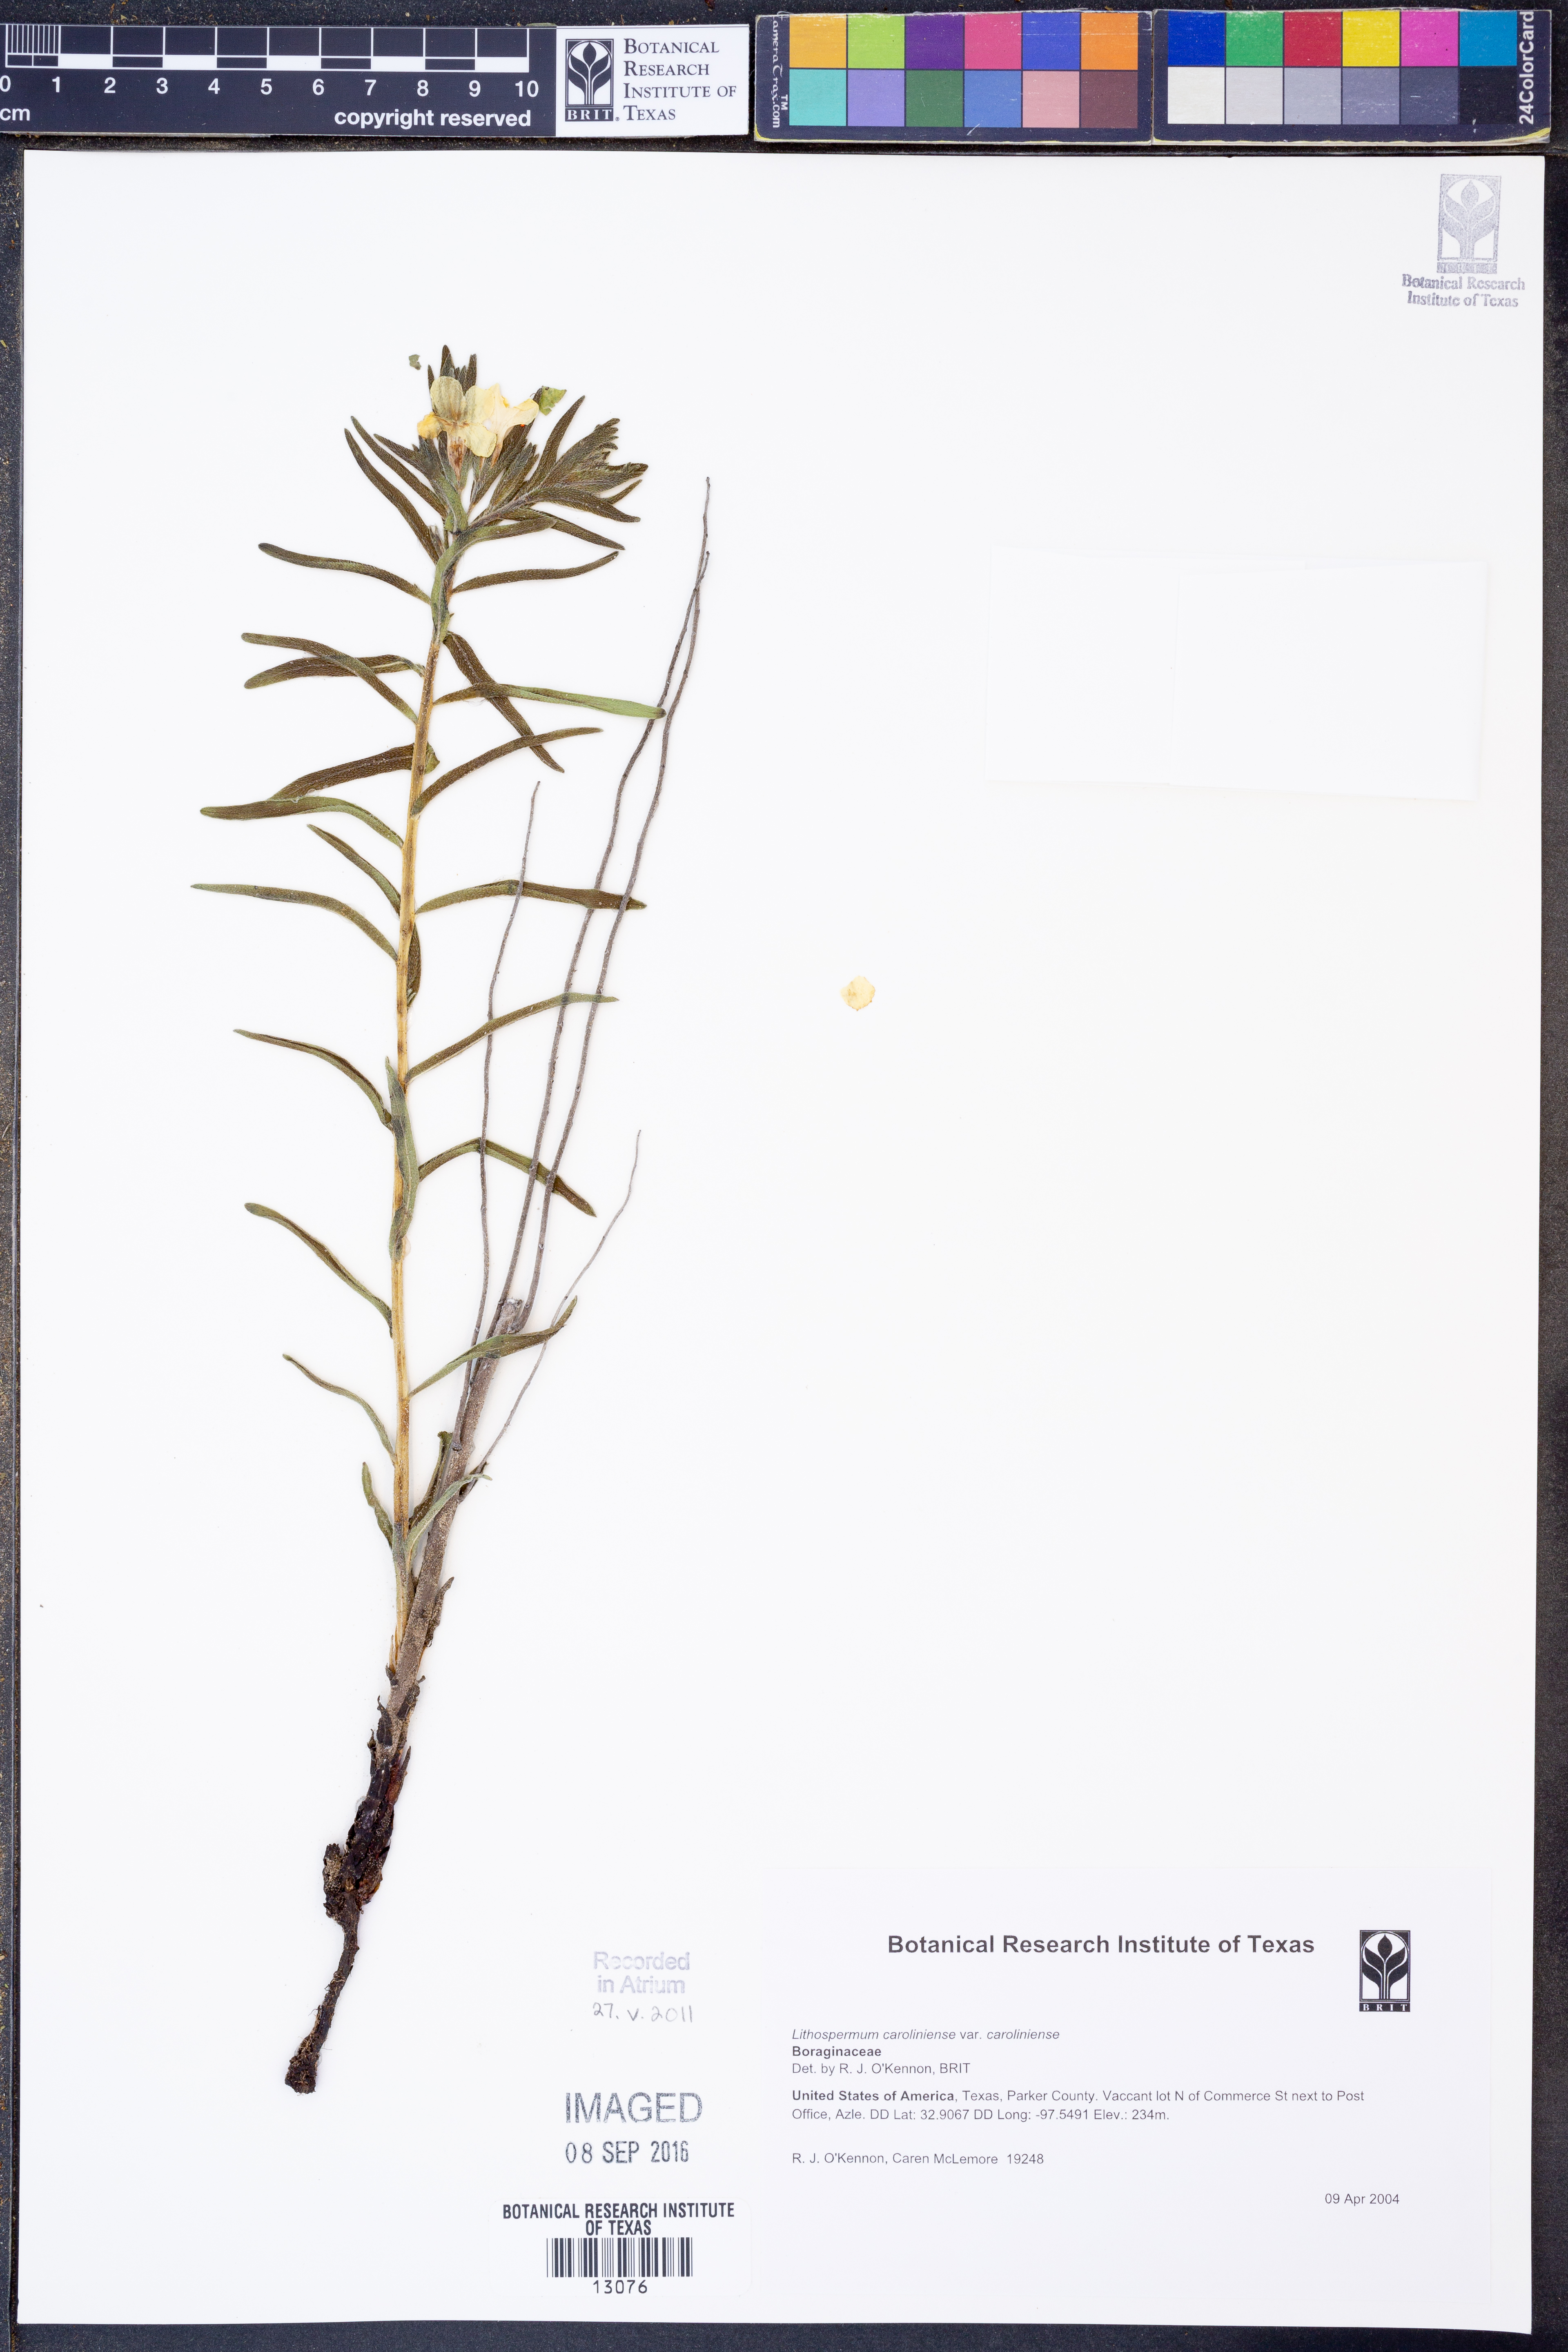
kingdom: Plantae
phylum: Tracheophyta
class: Magnoliopsida
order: Boraginales
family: Boraginaceae
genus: Lithospermum
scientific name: Lithospermum caroliniense
